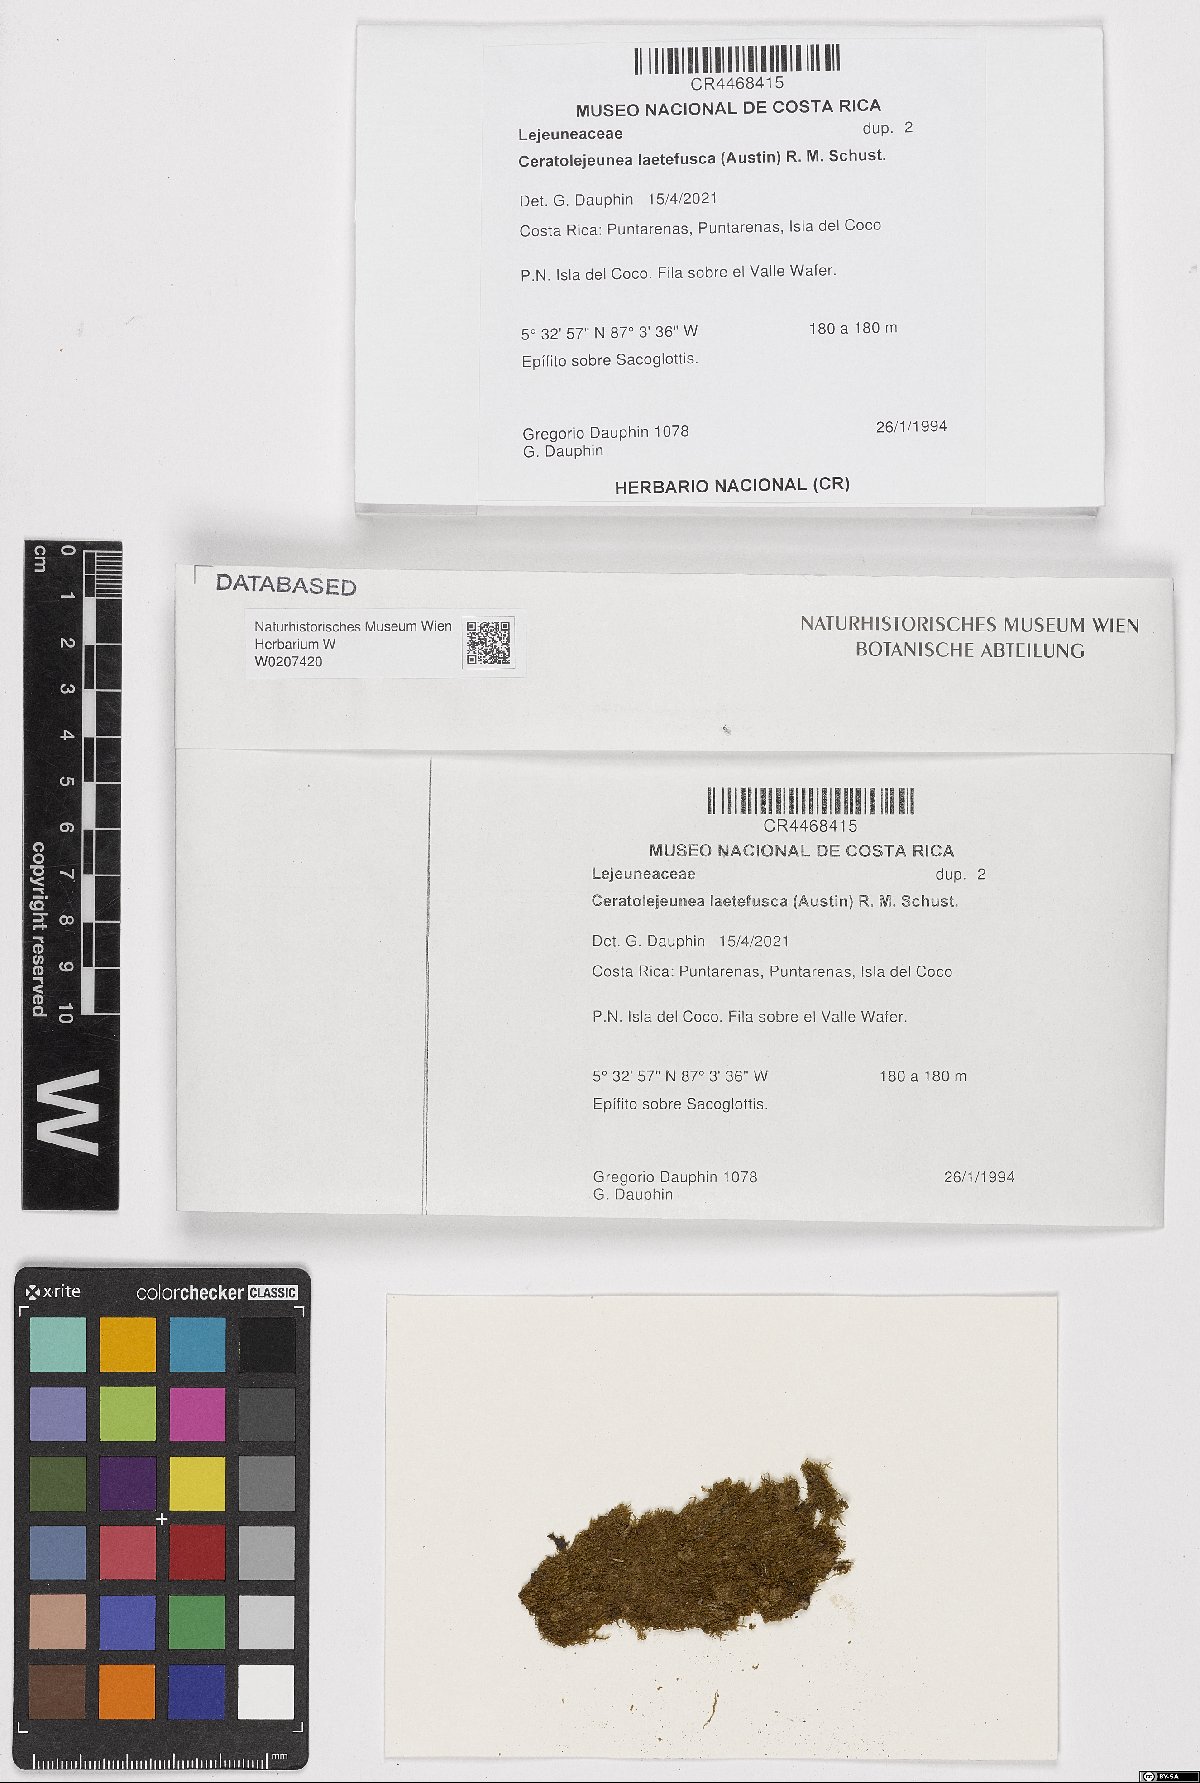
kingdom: Plantae
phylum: Marchantiophyta
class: Jungermanniopsida
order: Porellales
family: Lejeuneaceae
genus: Ceratolejeunea
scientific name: Ceratolejeunea laetefusca
